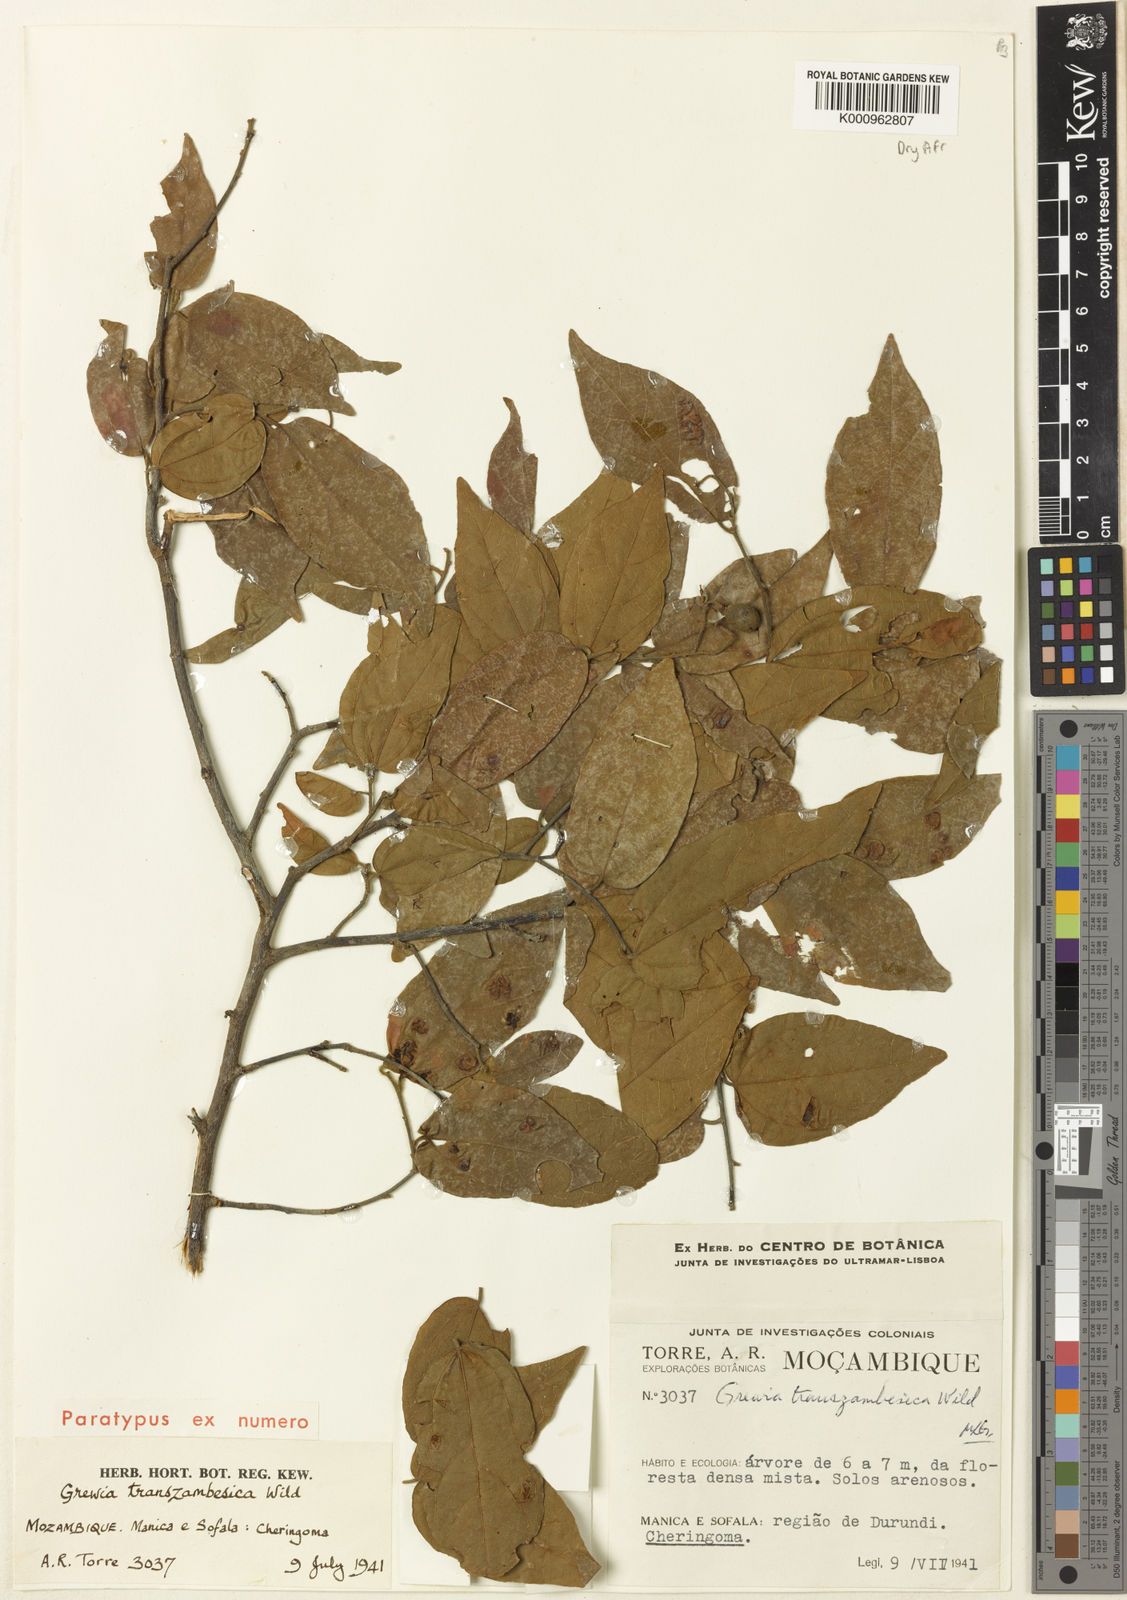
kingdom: Plantae
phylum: Tracheophyta
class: Magnoliopsida
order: Malvales
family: Malvaceae
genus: Microcos
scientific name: Microcos heterotricha
